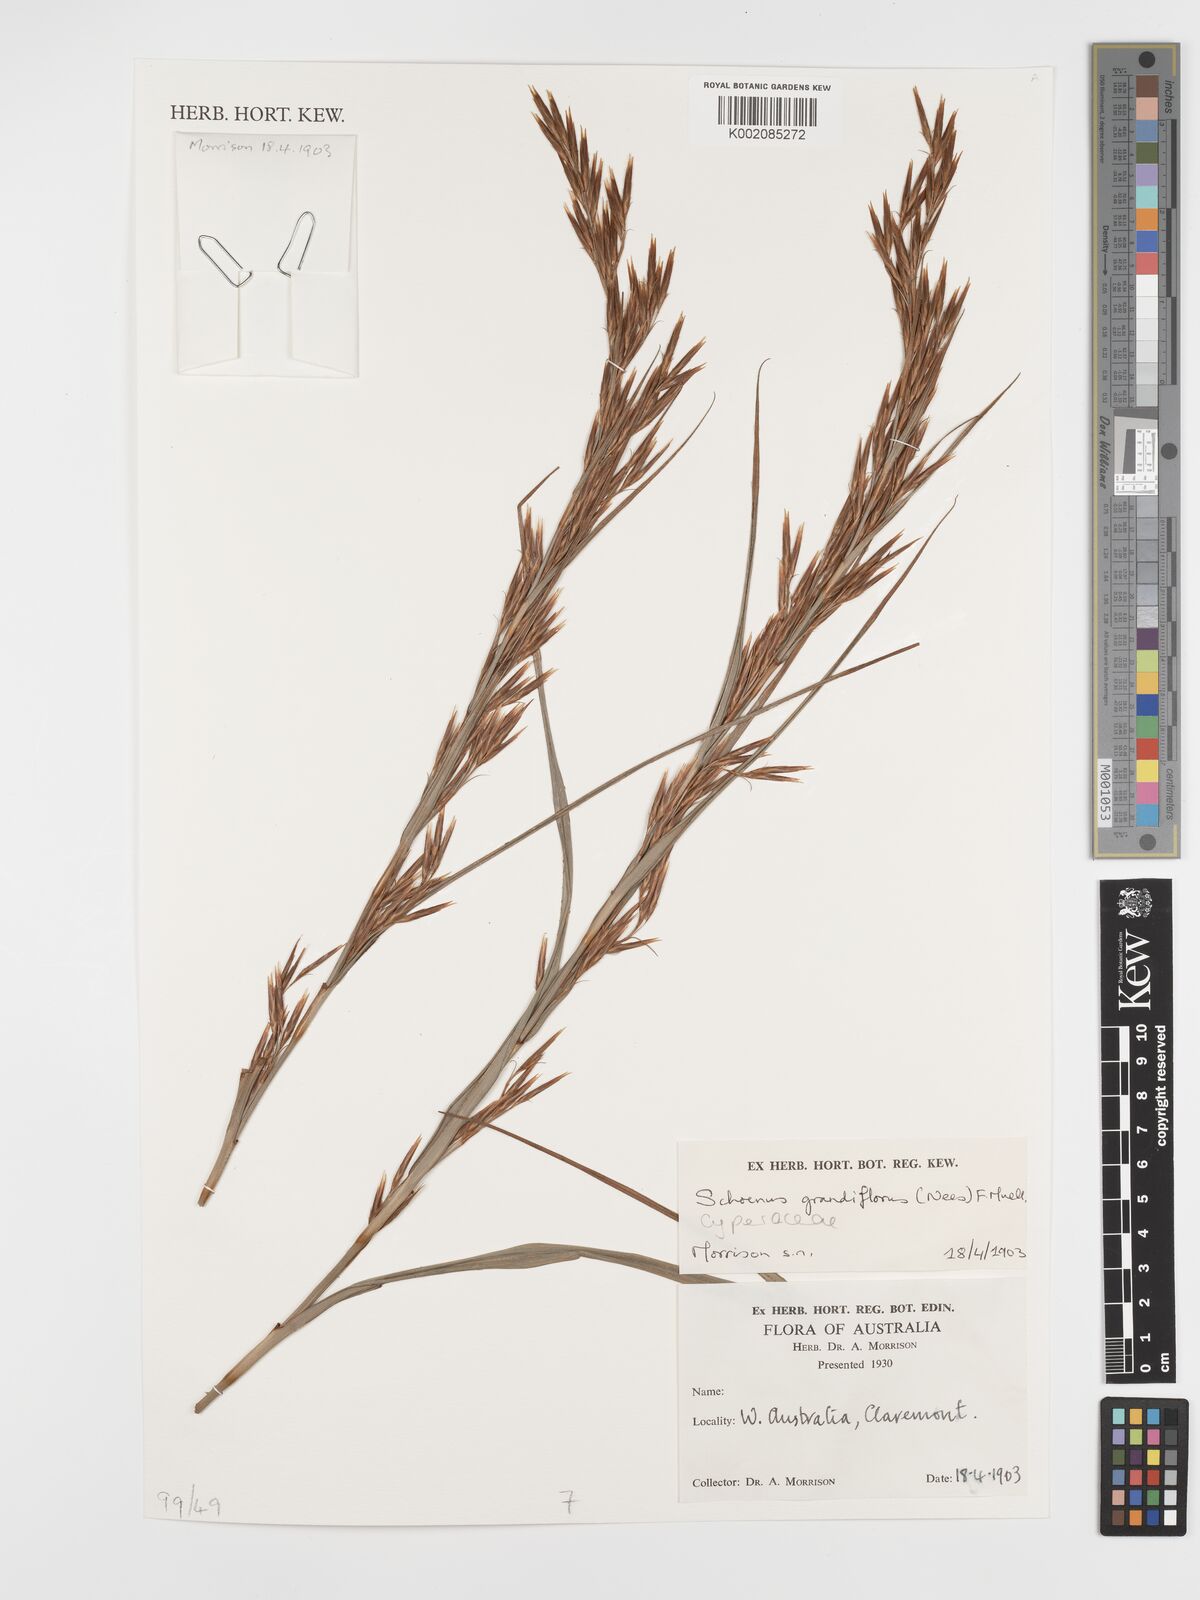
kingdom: Plantae
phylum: Tracheophyta
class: Liliopsida
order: Poales
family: Cyperaceae
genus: Schoenus
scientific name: Schoenus grandiflorus
